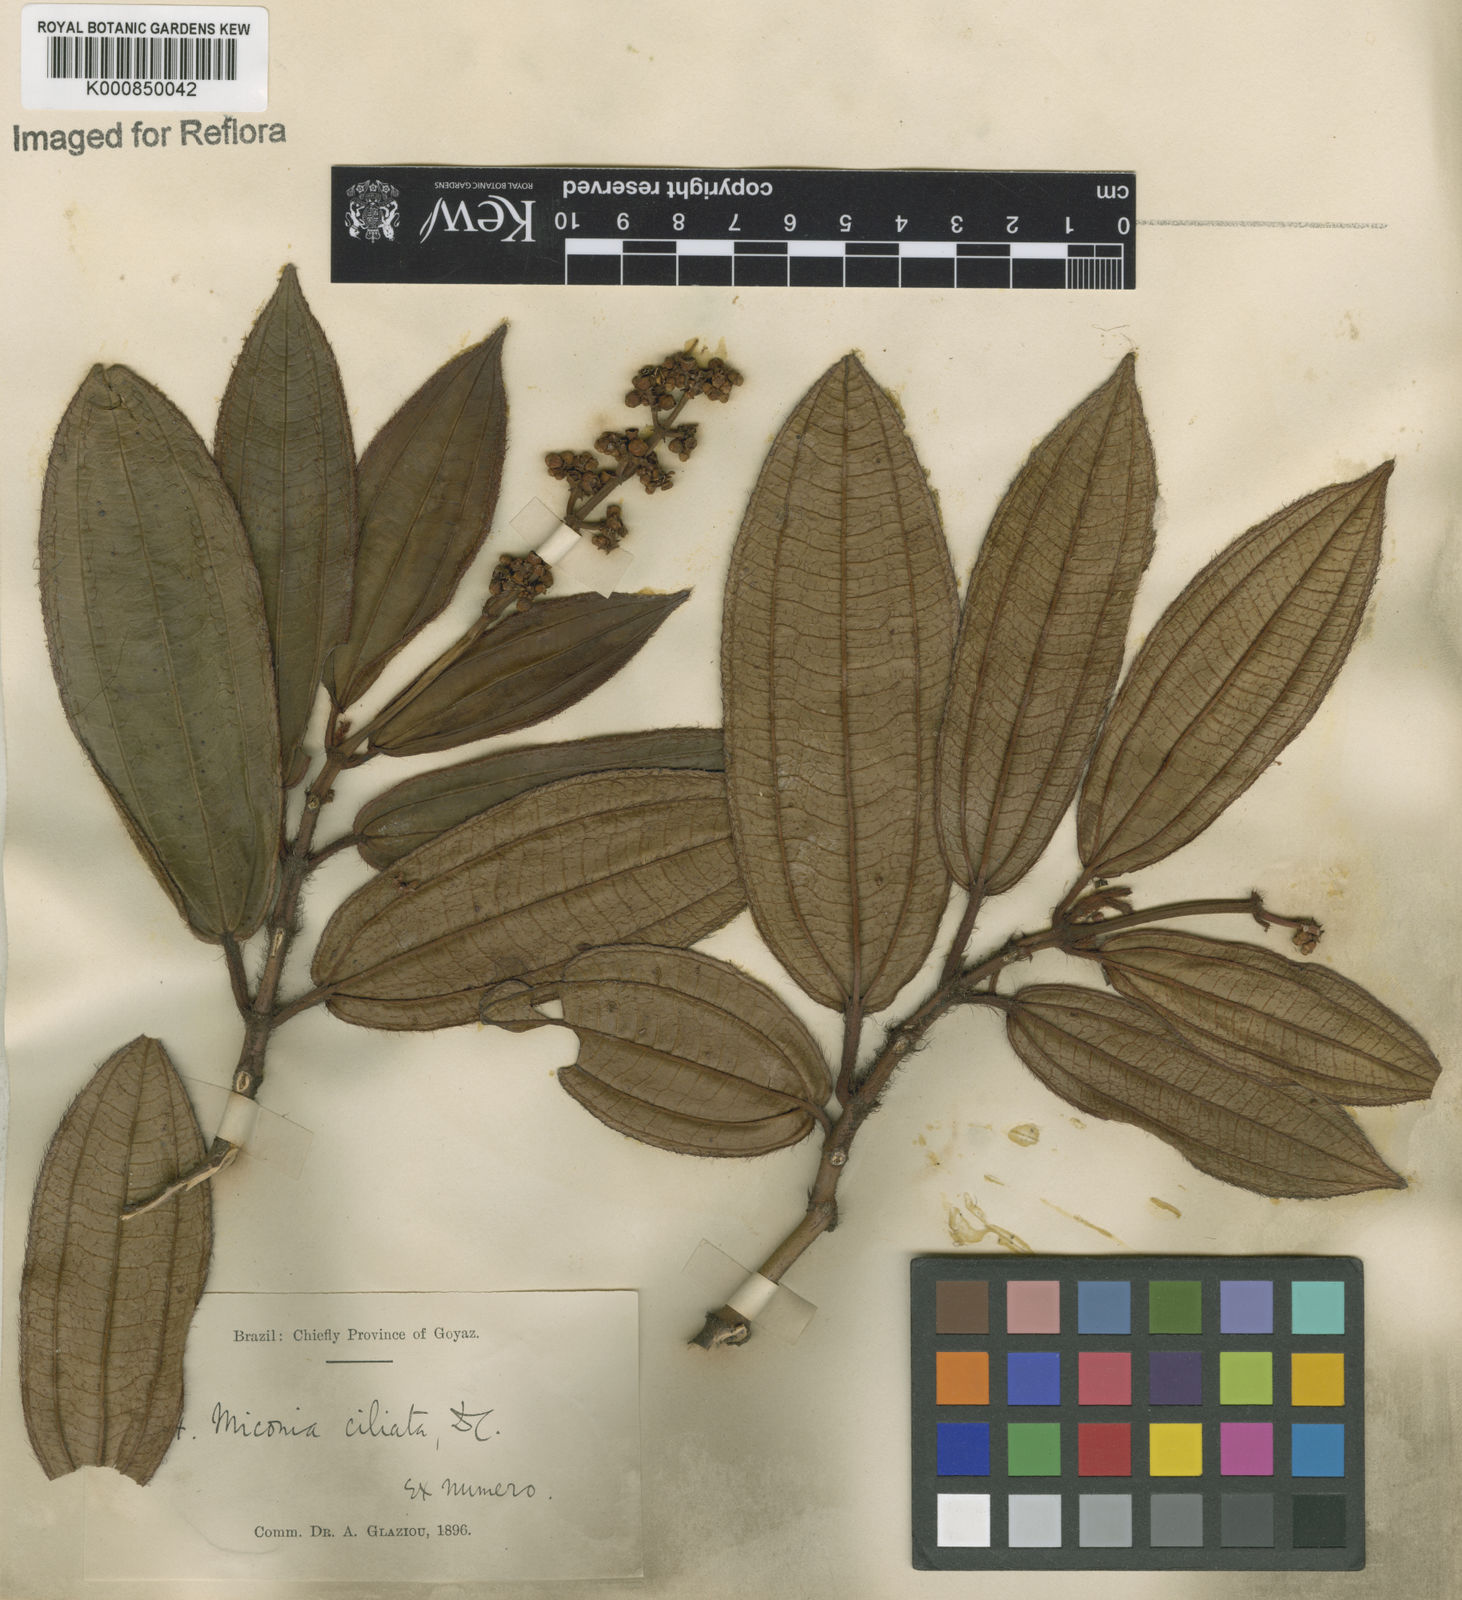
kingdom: Plantae
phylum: Tracheophyta
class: Magnoliopsida
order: Myrtales
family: Melastomataceae
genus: Miconia
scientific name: Miconia ciliata
